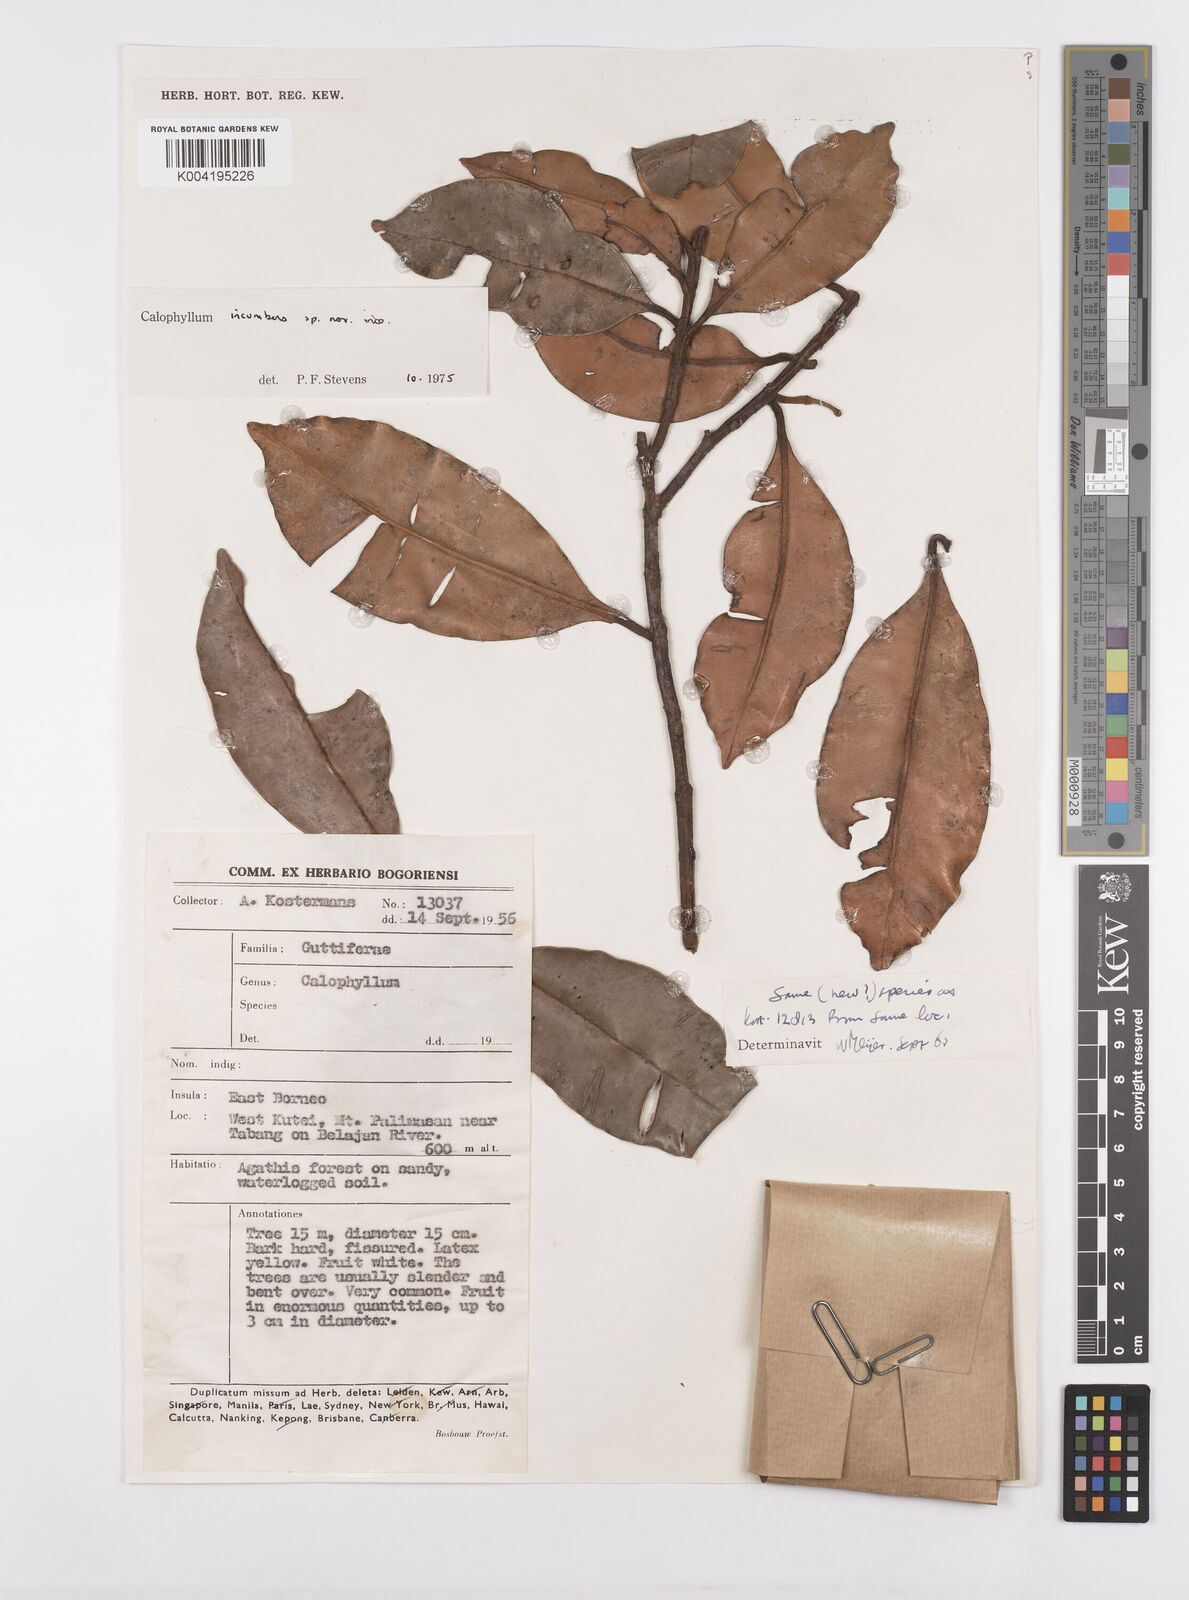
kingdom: Plantae
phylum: Tracheophyta
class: Magnoliopsida
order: Malpighiales
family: Calophyllaceae
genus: Calophyllum
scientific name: Calophyllum incumbens
